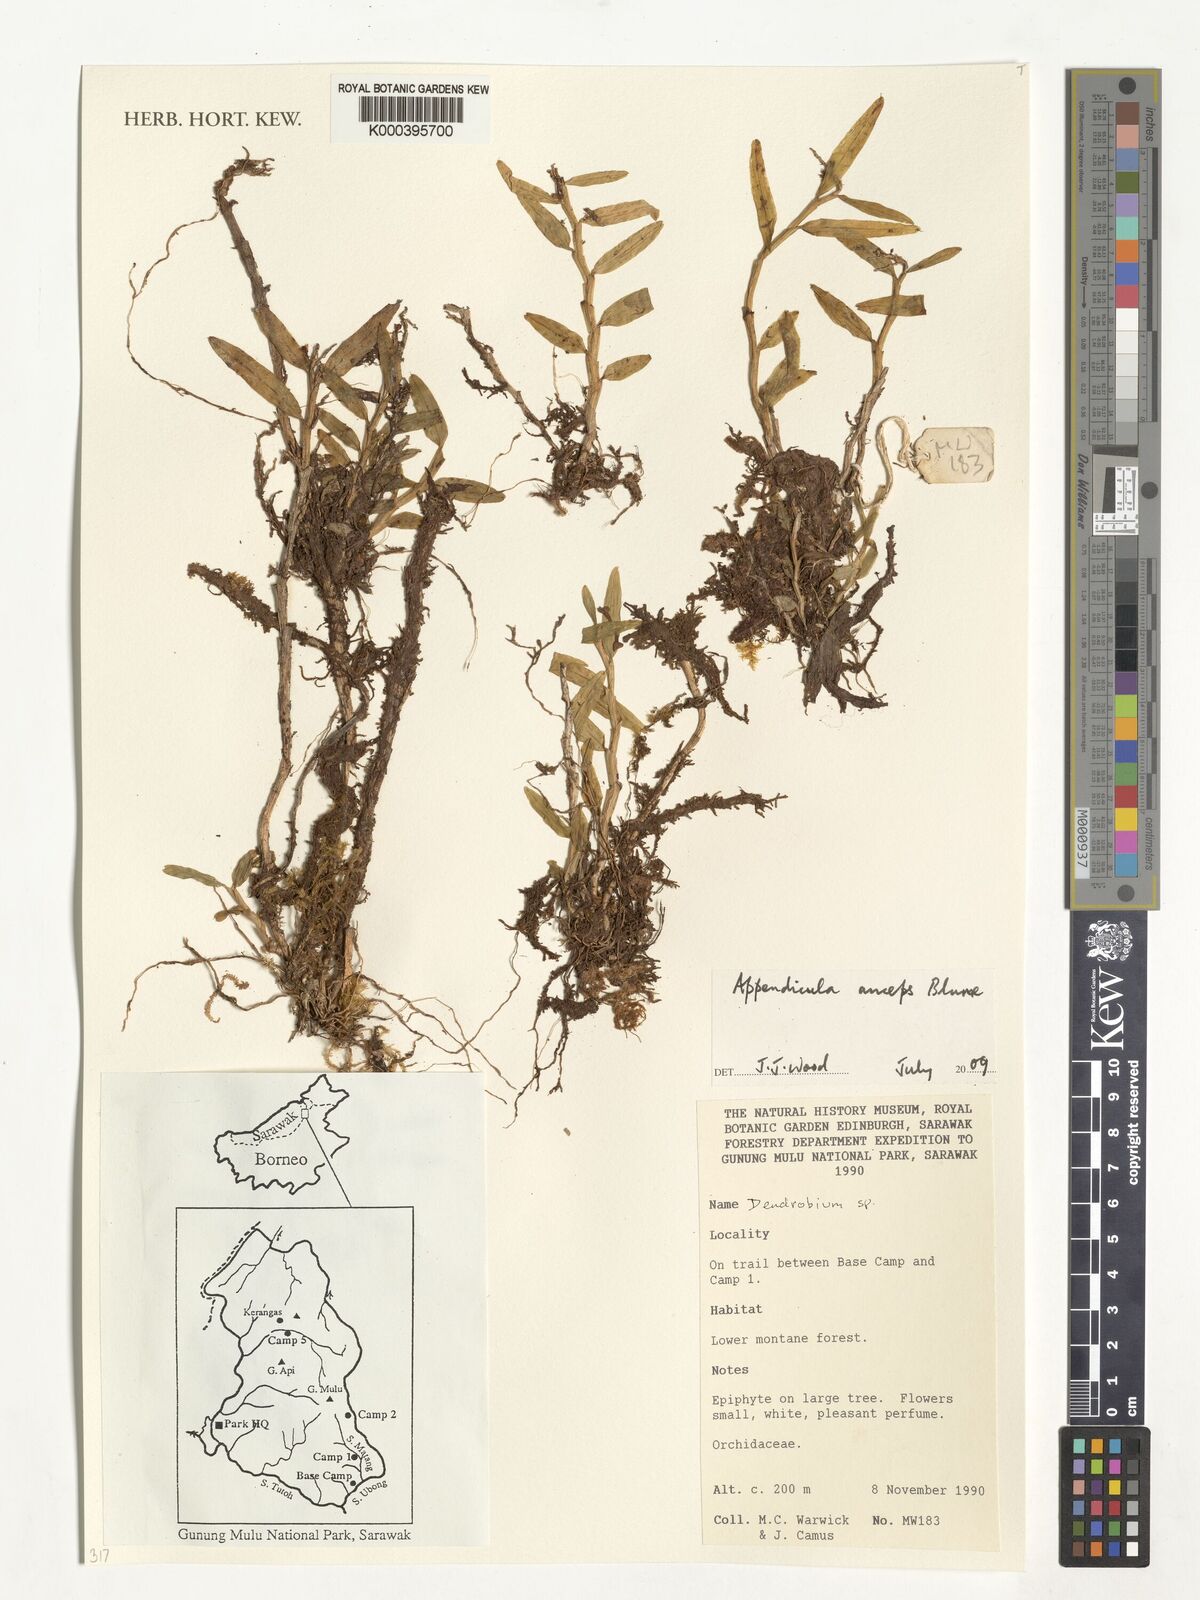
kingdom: Plantae
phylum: Tracheophyta
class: Liliopsida
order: Asparagales
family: Orchidaceae
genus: Appendicula
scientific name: Appendicula anceps
